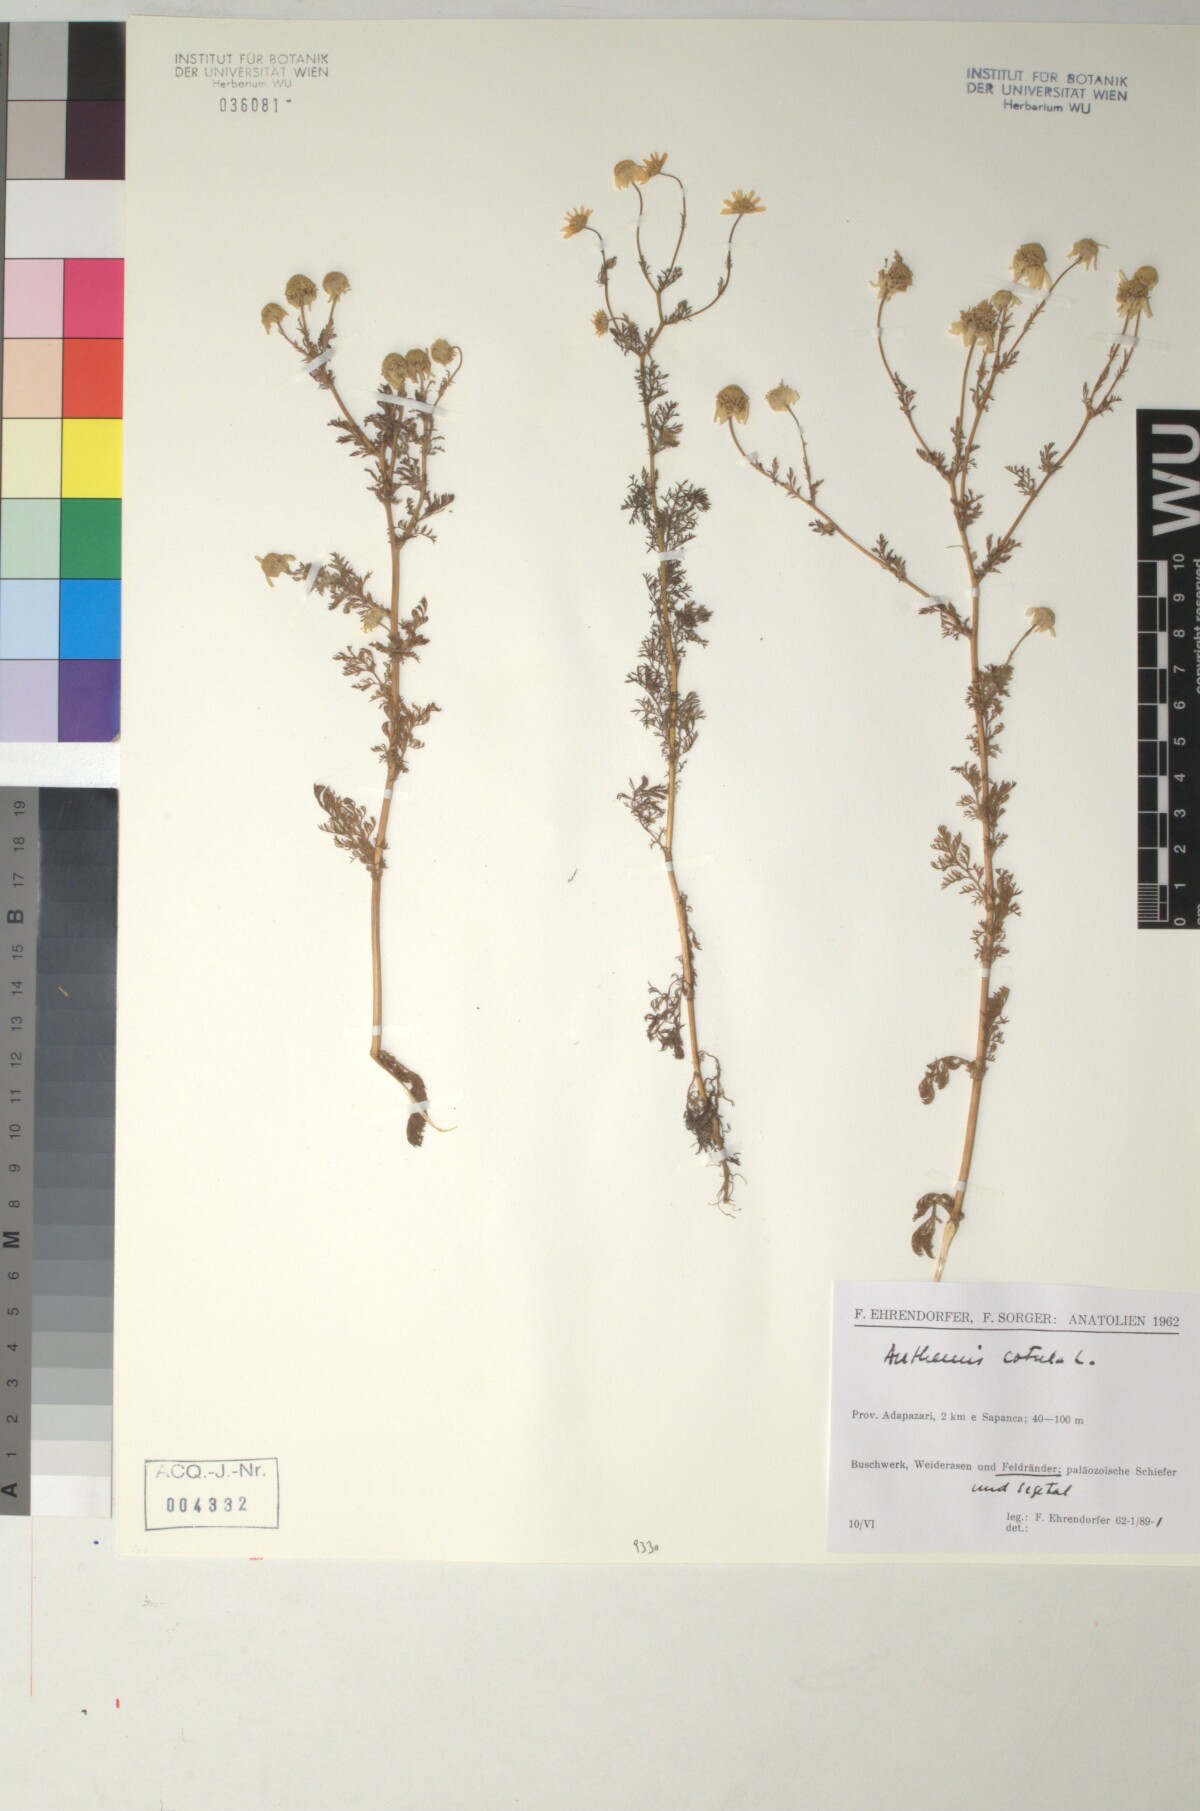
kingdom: Plantae
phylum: Tracheophyta
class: Magnoliopsida
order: Asterales
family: Asteraceae
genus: Anthemis
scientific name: Anthemis cotula
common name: Stinking chamomile
